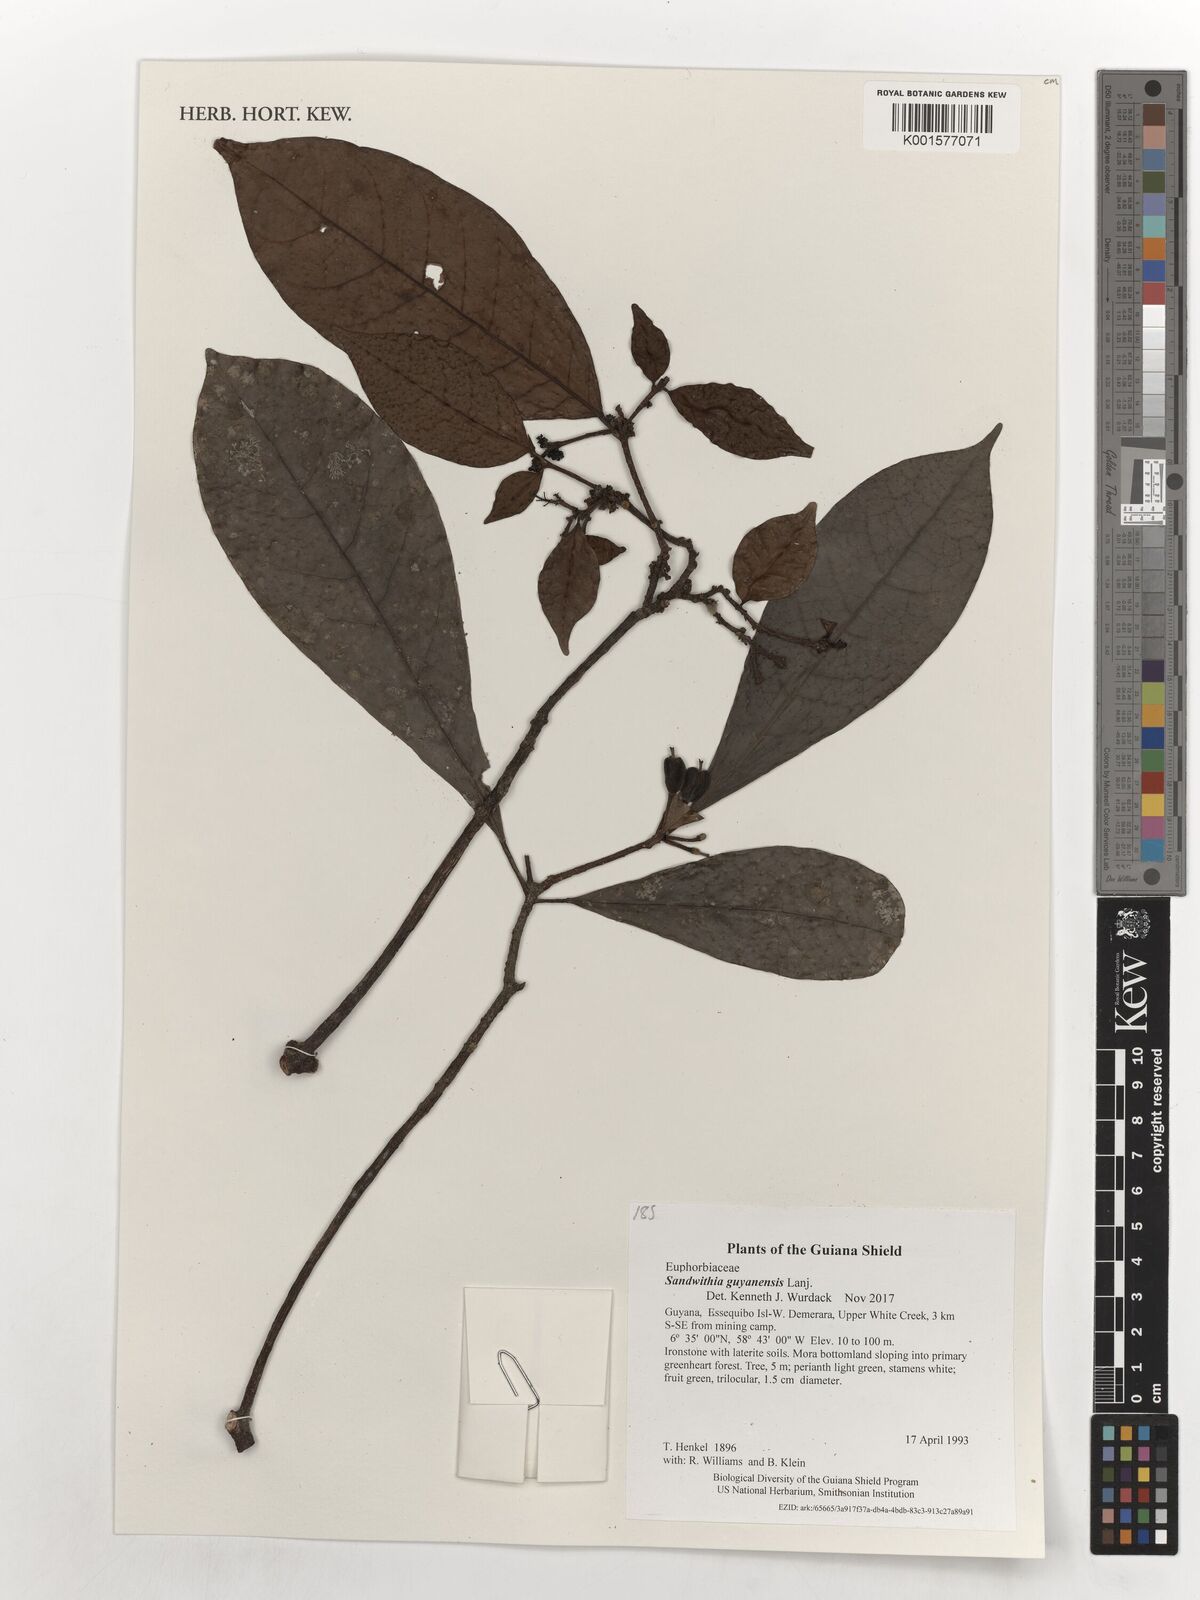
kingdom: Plantae
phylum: Tracheophyta
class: Magnoliopsida
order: Malpighiales
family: Euphorbiaceae
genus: Sandwithia
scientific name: Sandwithia guyanensis
